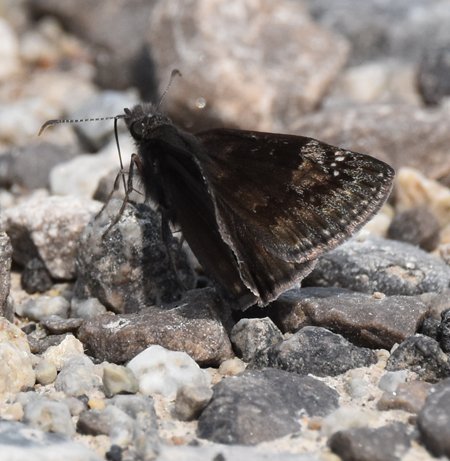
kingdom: Animalia
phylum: Arthropoda
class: Insecta
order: Lepidoptera
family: Hesperiidae
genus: Gesta
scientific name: Gesta
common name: Wild Indigo Duskywing
